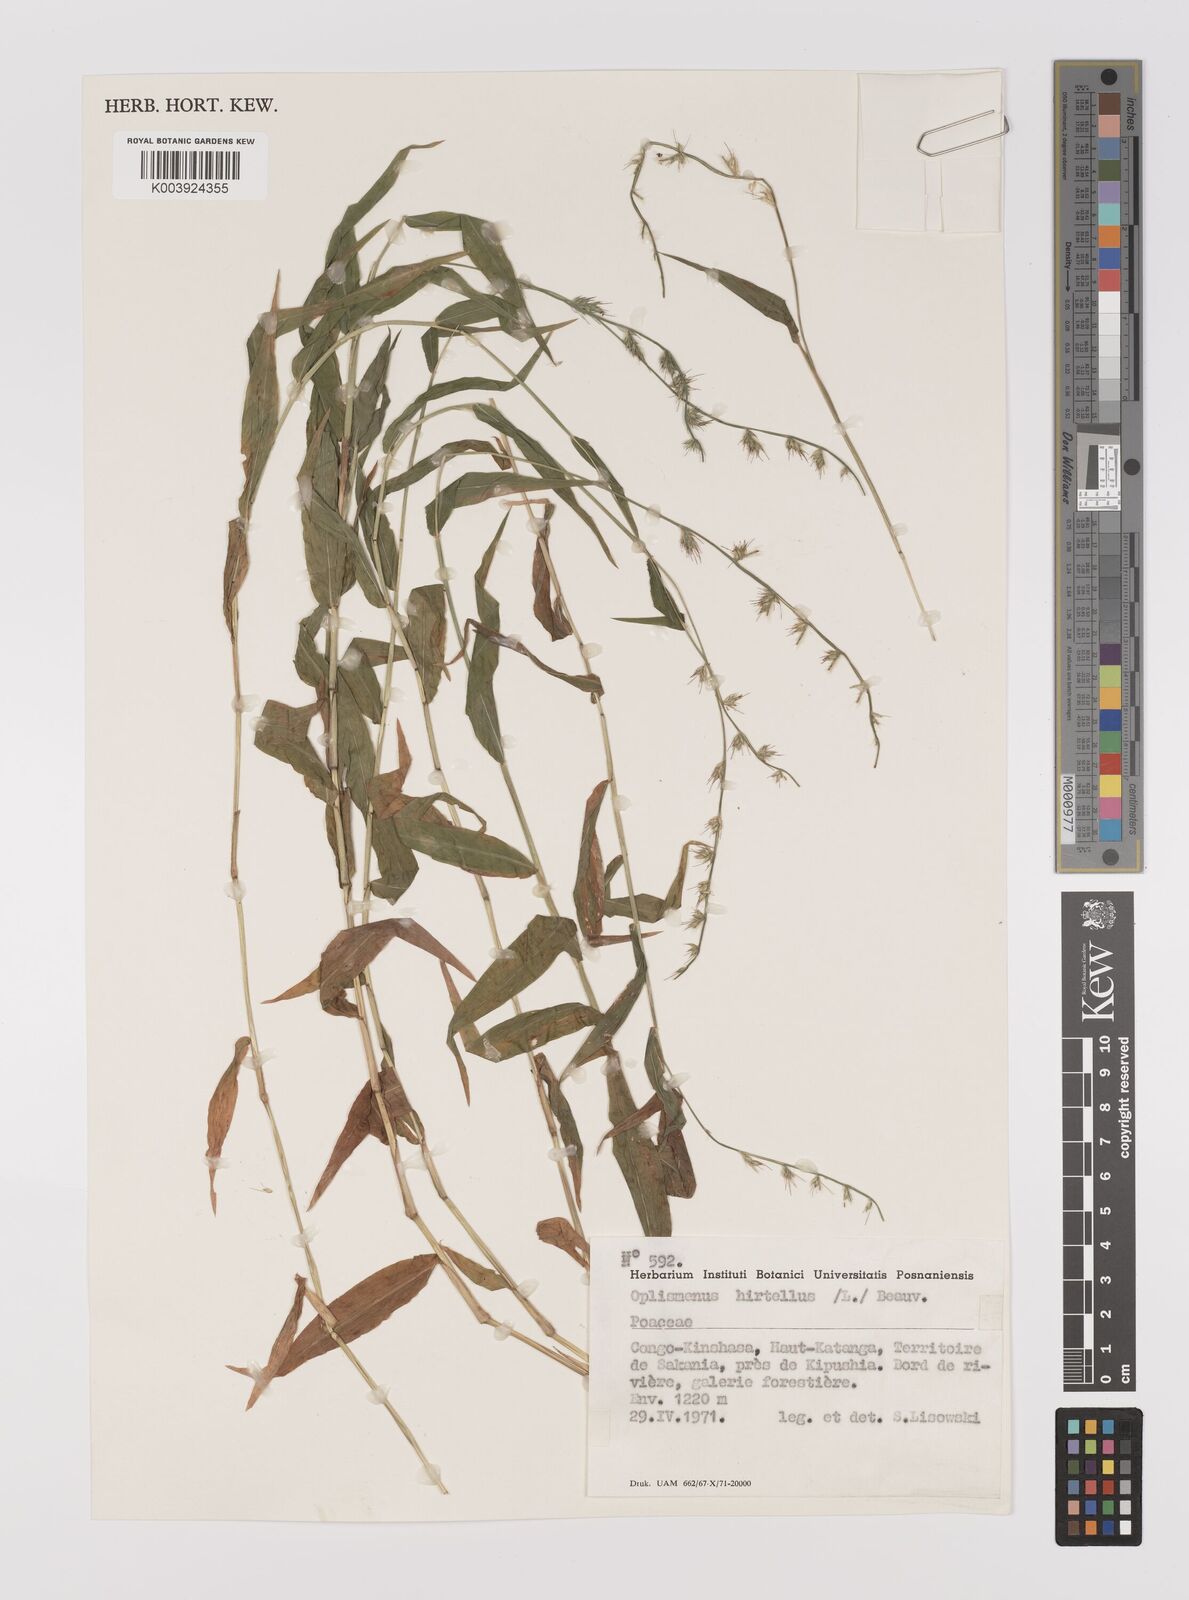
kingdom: Plantae
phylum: Tracheophyta
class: Liliopsida
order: Poales
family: Poaceae
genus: Oplismenus
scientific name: Oplismenus hirtellus
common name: Basketgrass
